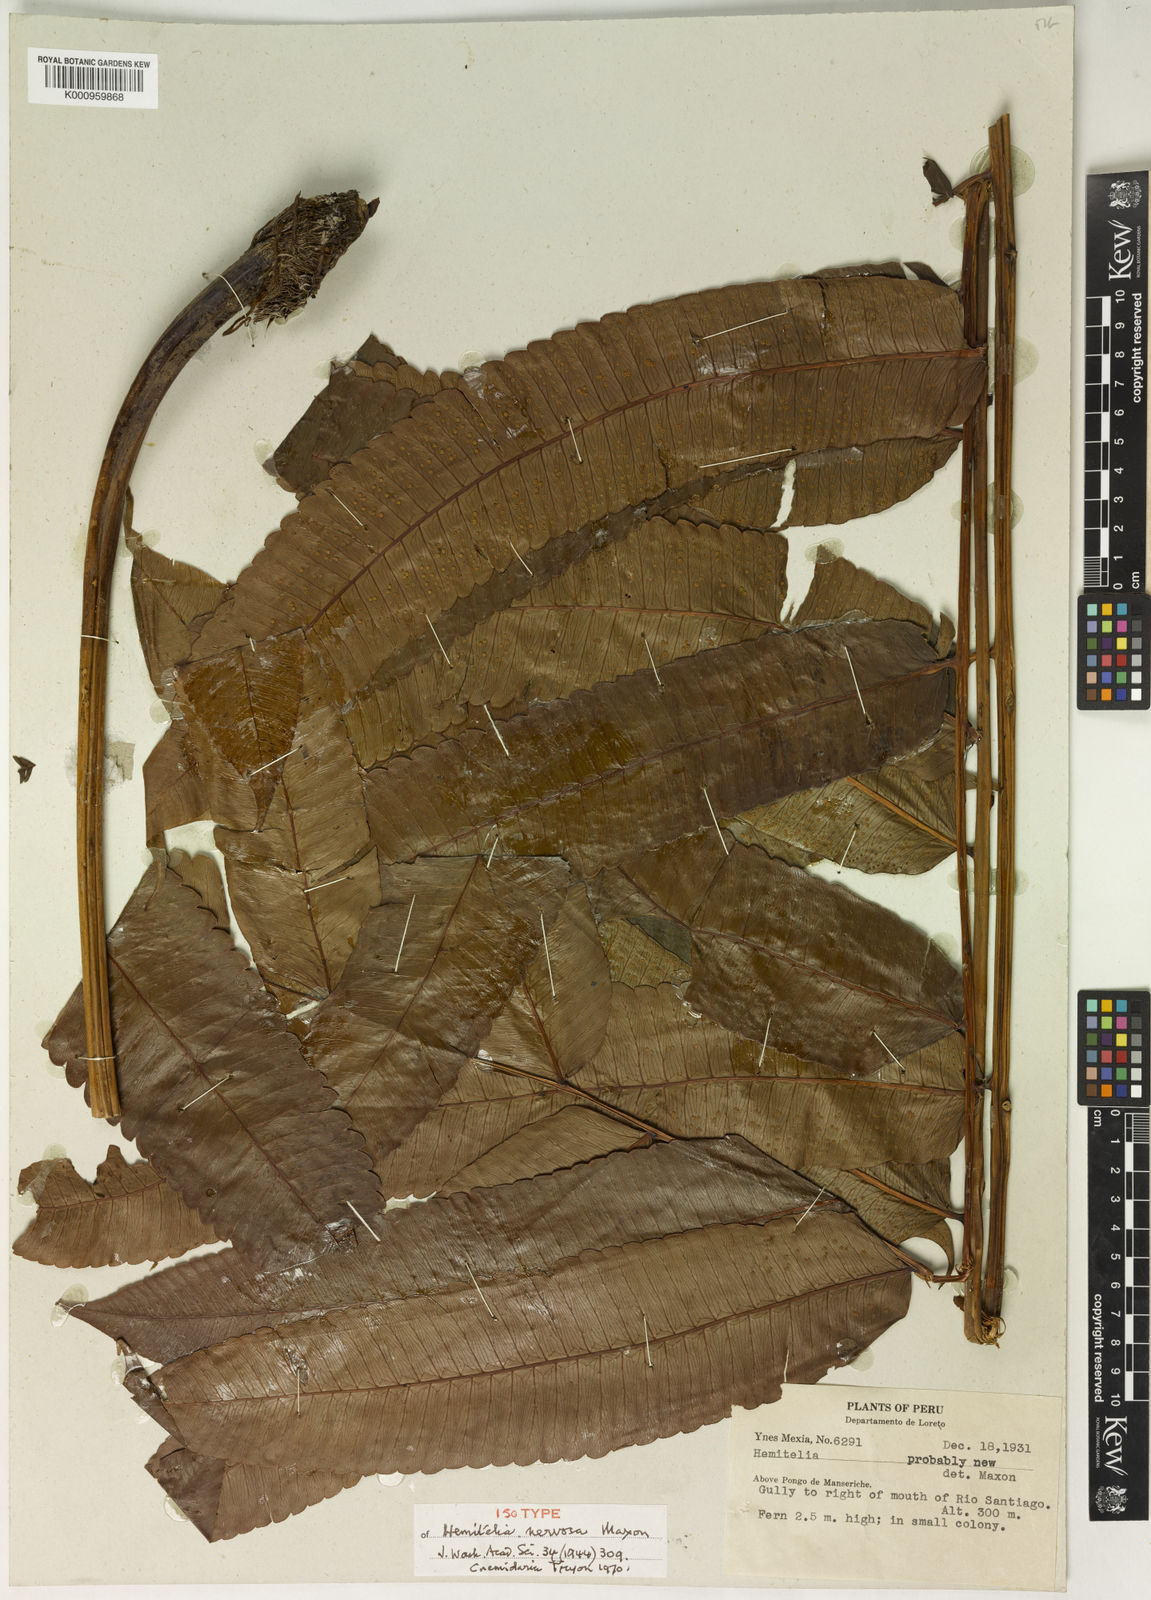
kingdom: Plantae
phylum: Tracheophyta
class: Polypodiopsida
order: Cyatheales
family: Cyatheaceae
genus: Cyathea
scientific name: Cyathea nervosa
